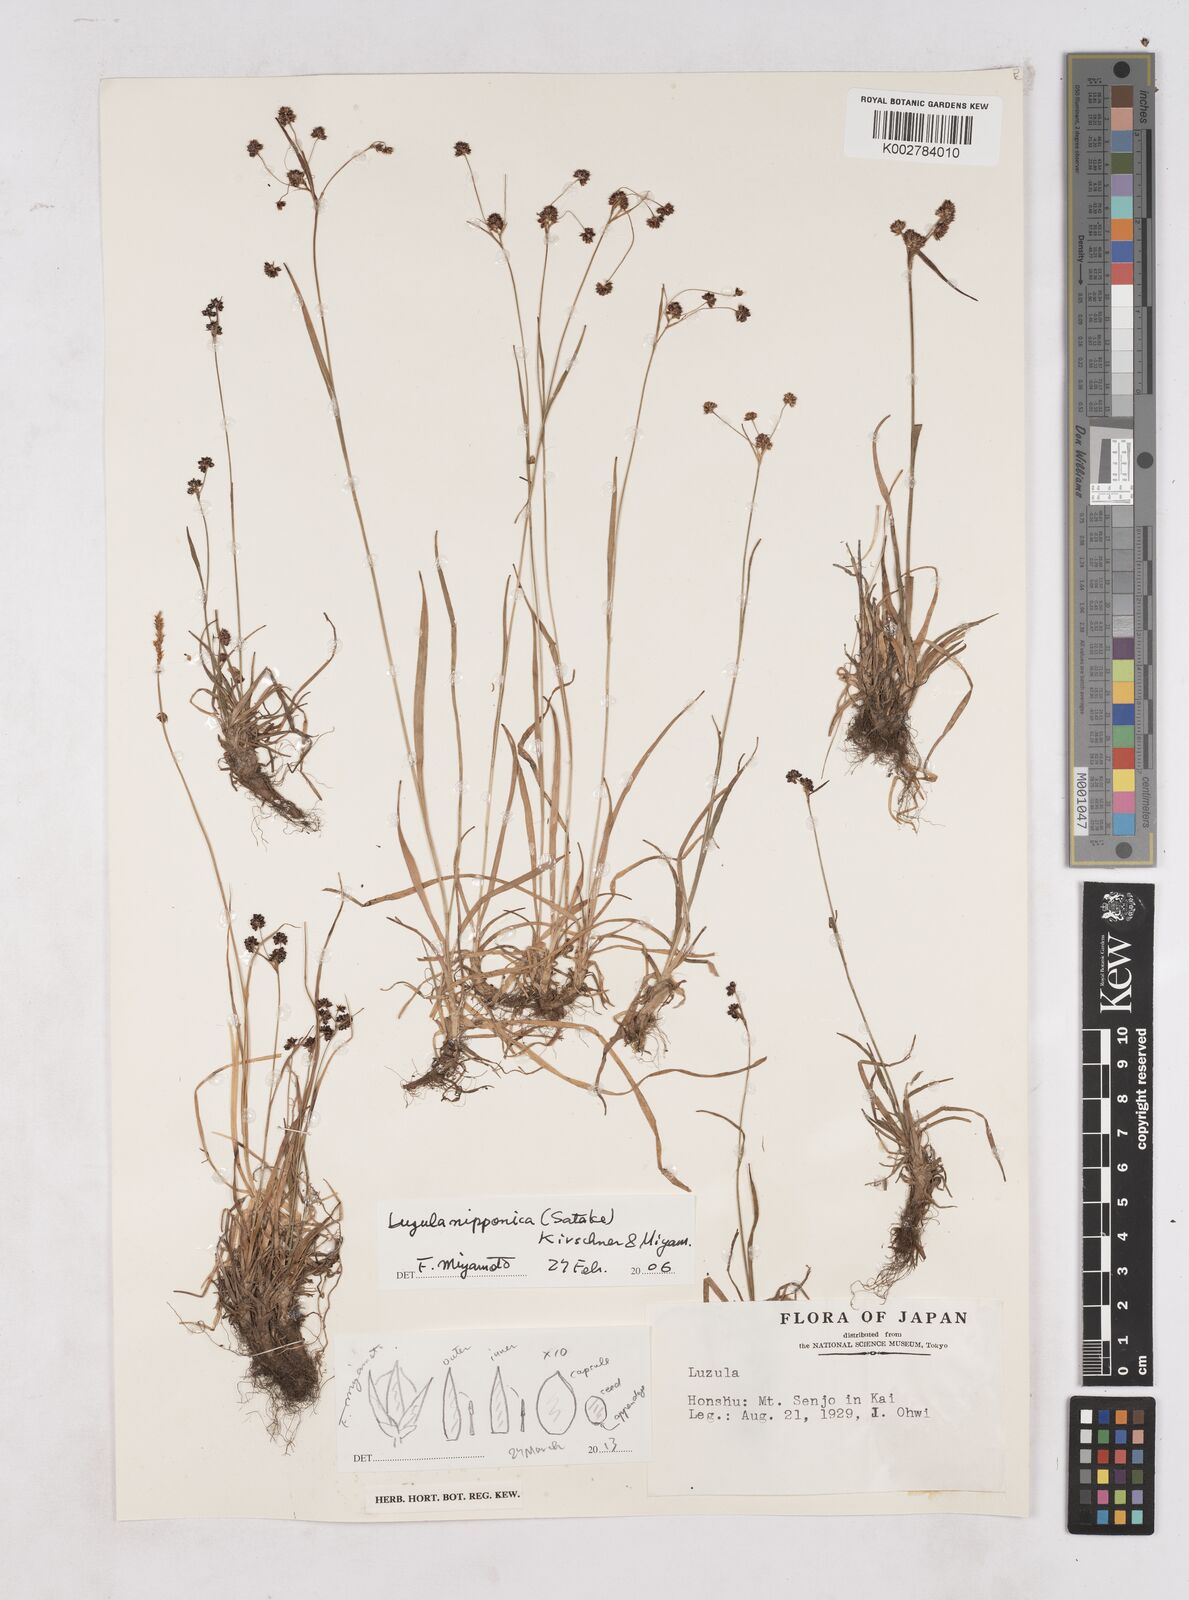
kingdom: Plantae
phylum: Tracheophyta
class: Liliopsida
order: Poales
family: Juncaceae
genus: Luzula
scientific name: Luzula nipponica
